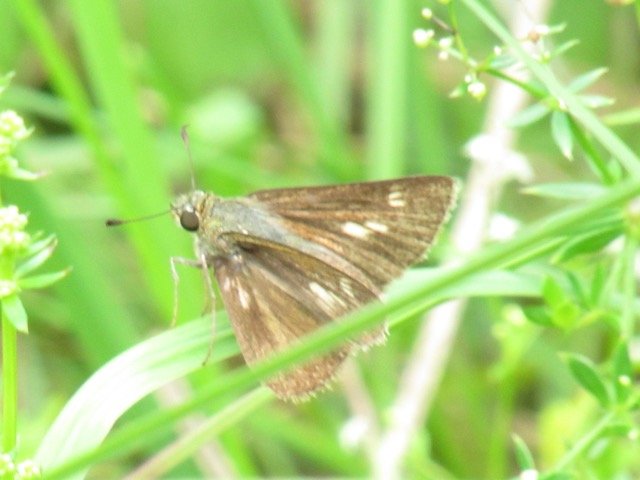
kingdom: Animalia
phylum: Arthropoda
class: Insecta
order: Lepidoptera
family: Hesperiidae
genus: Polites
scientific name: Polites egeremet
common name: Northern Broken-Dash
